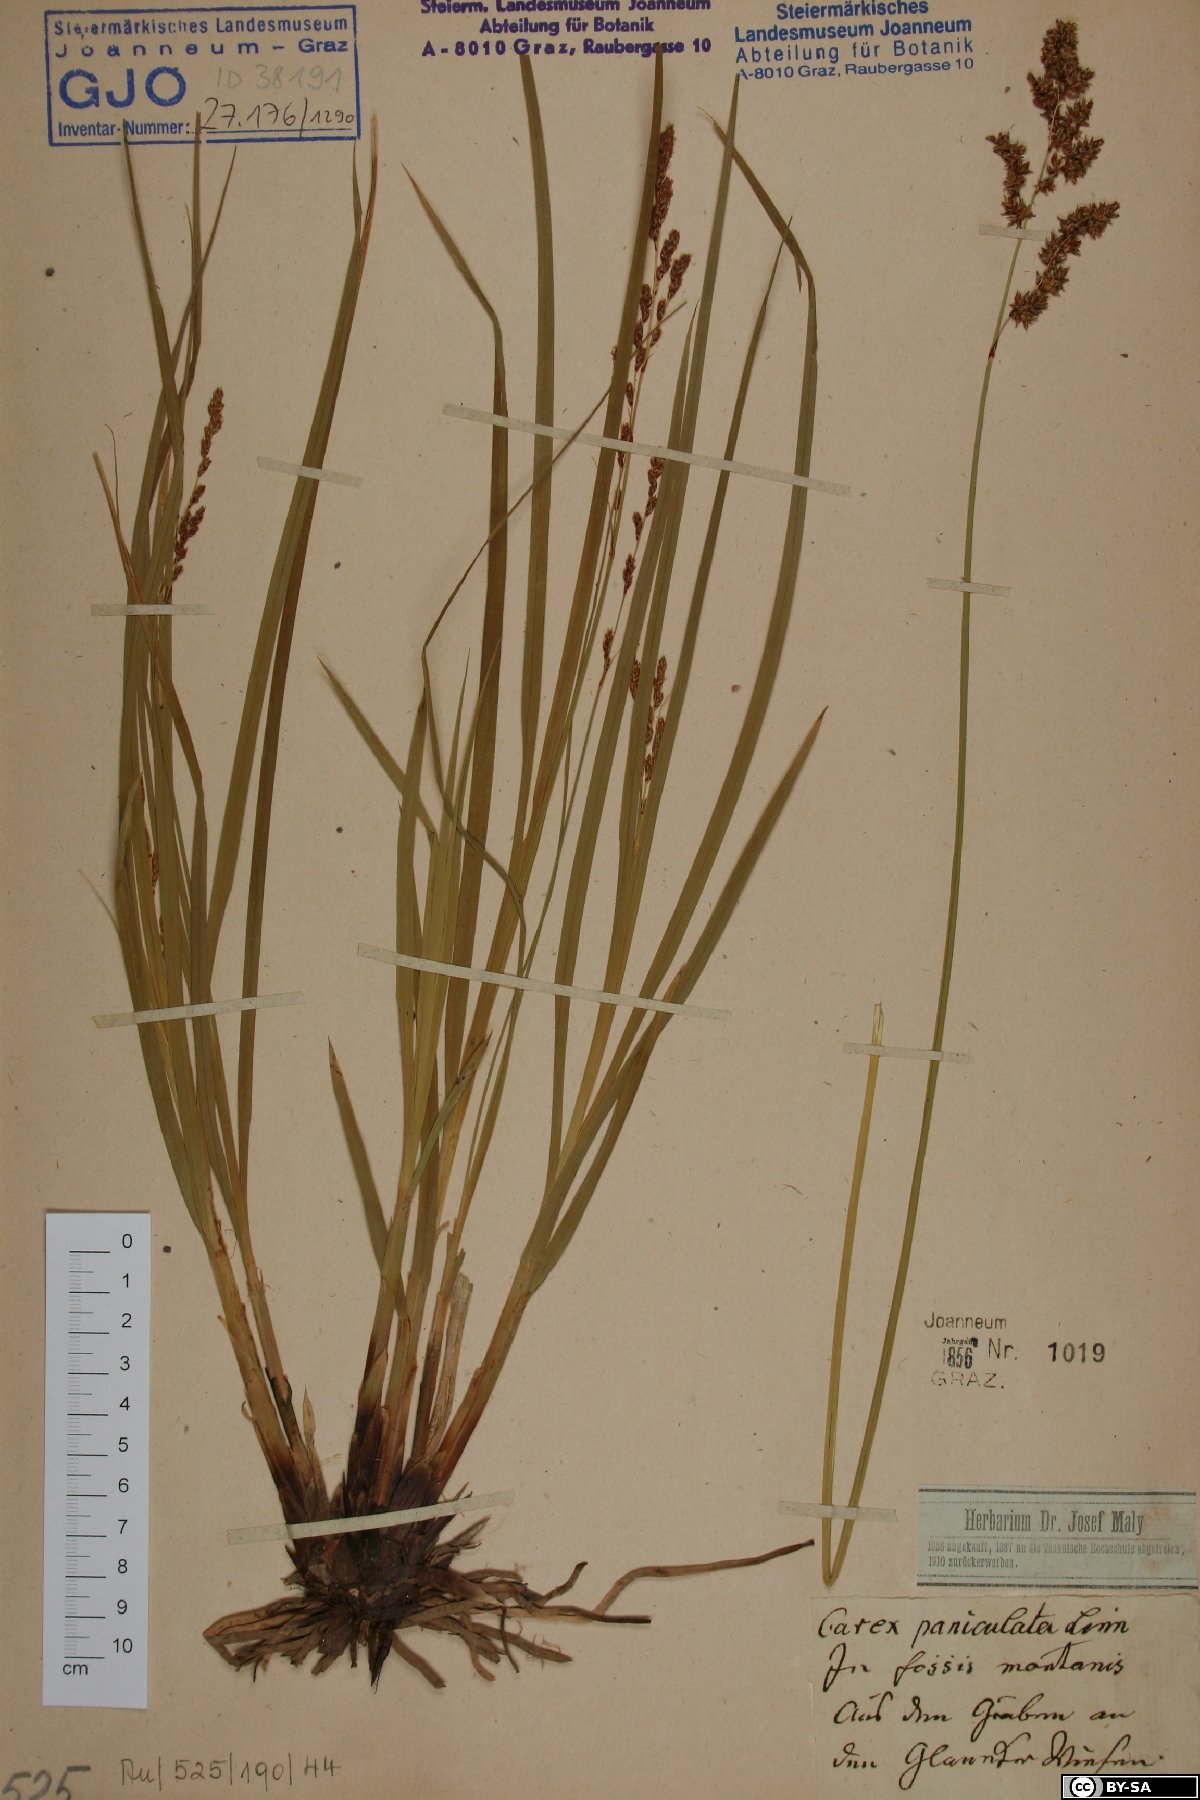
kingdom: Plantae
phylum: Tracheophyta
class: Liliopsida
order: Poales
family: Cyperaceae
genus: Carex
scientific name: Carex paniculata
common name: Greater tussock-sedge
